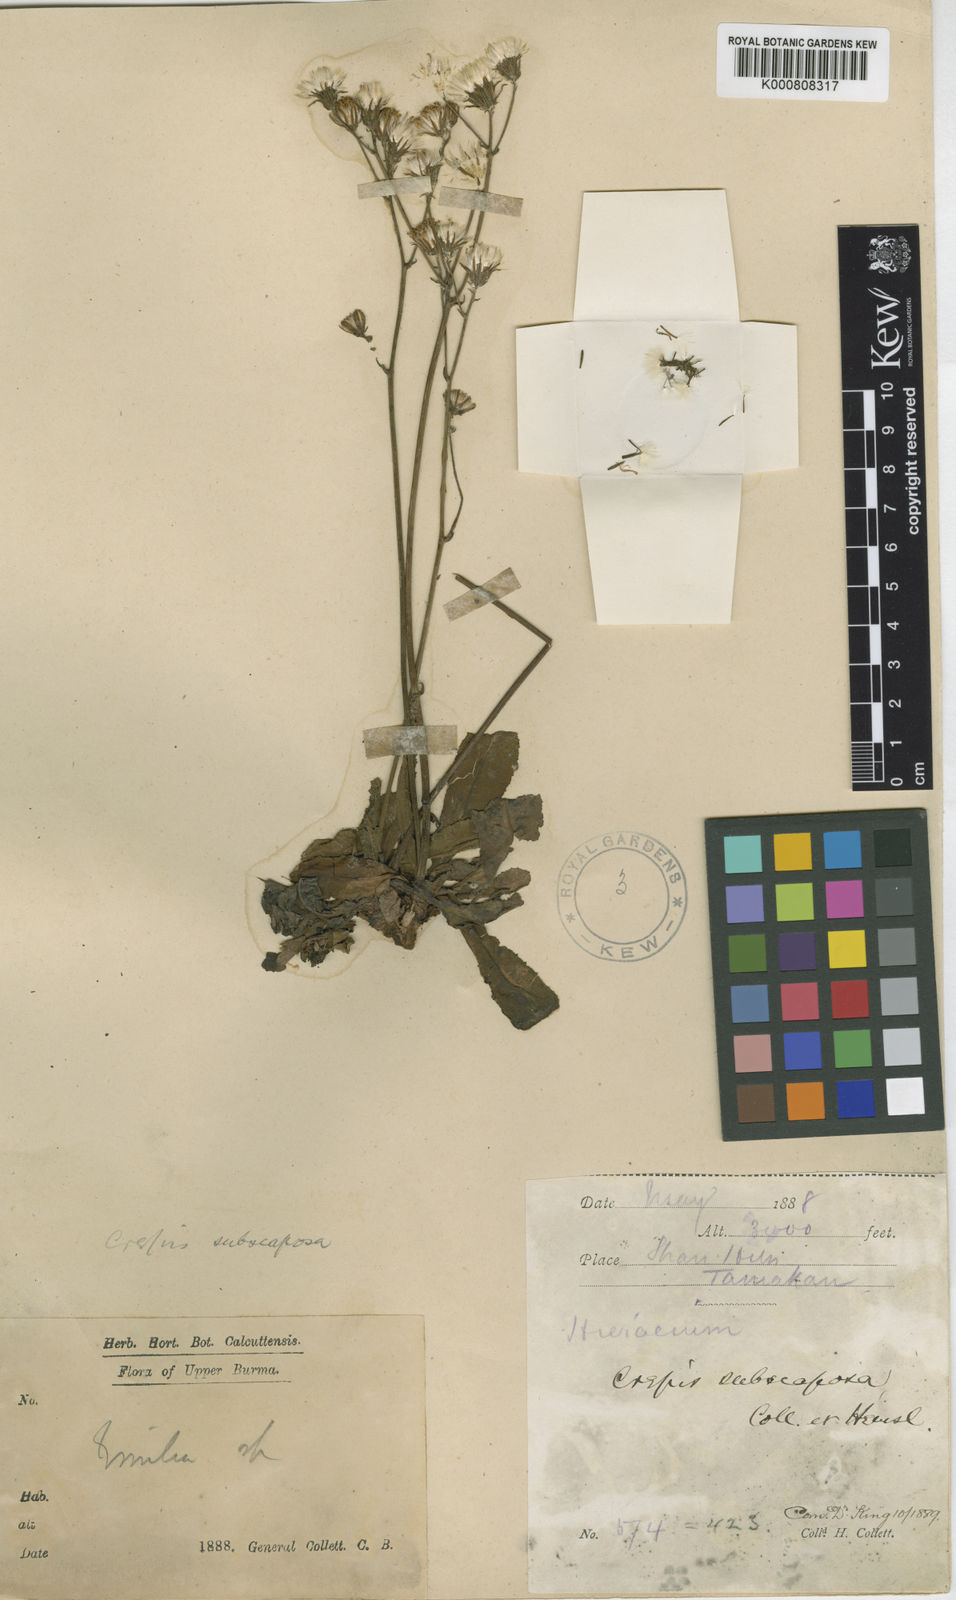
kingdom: Plantae
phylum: Tracheophyta
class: Magnoliopsida
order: Asterales
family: Asteraceae
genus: Crepis
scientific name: Crepis subscaposa
